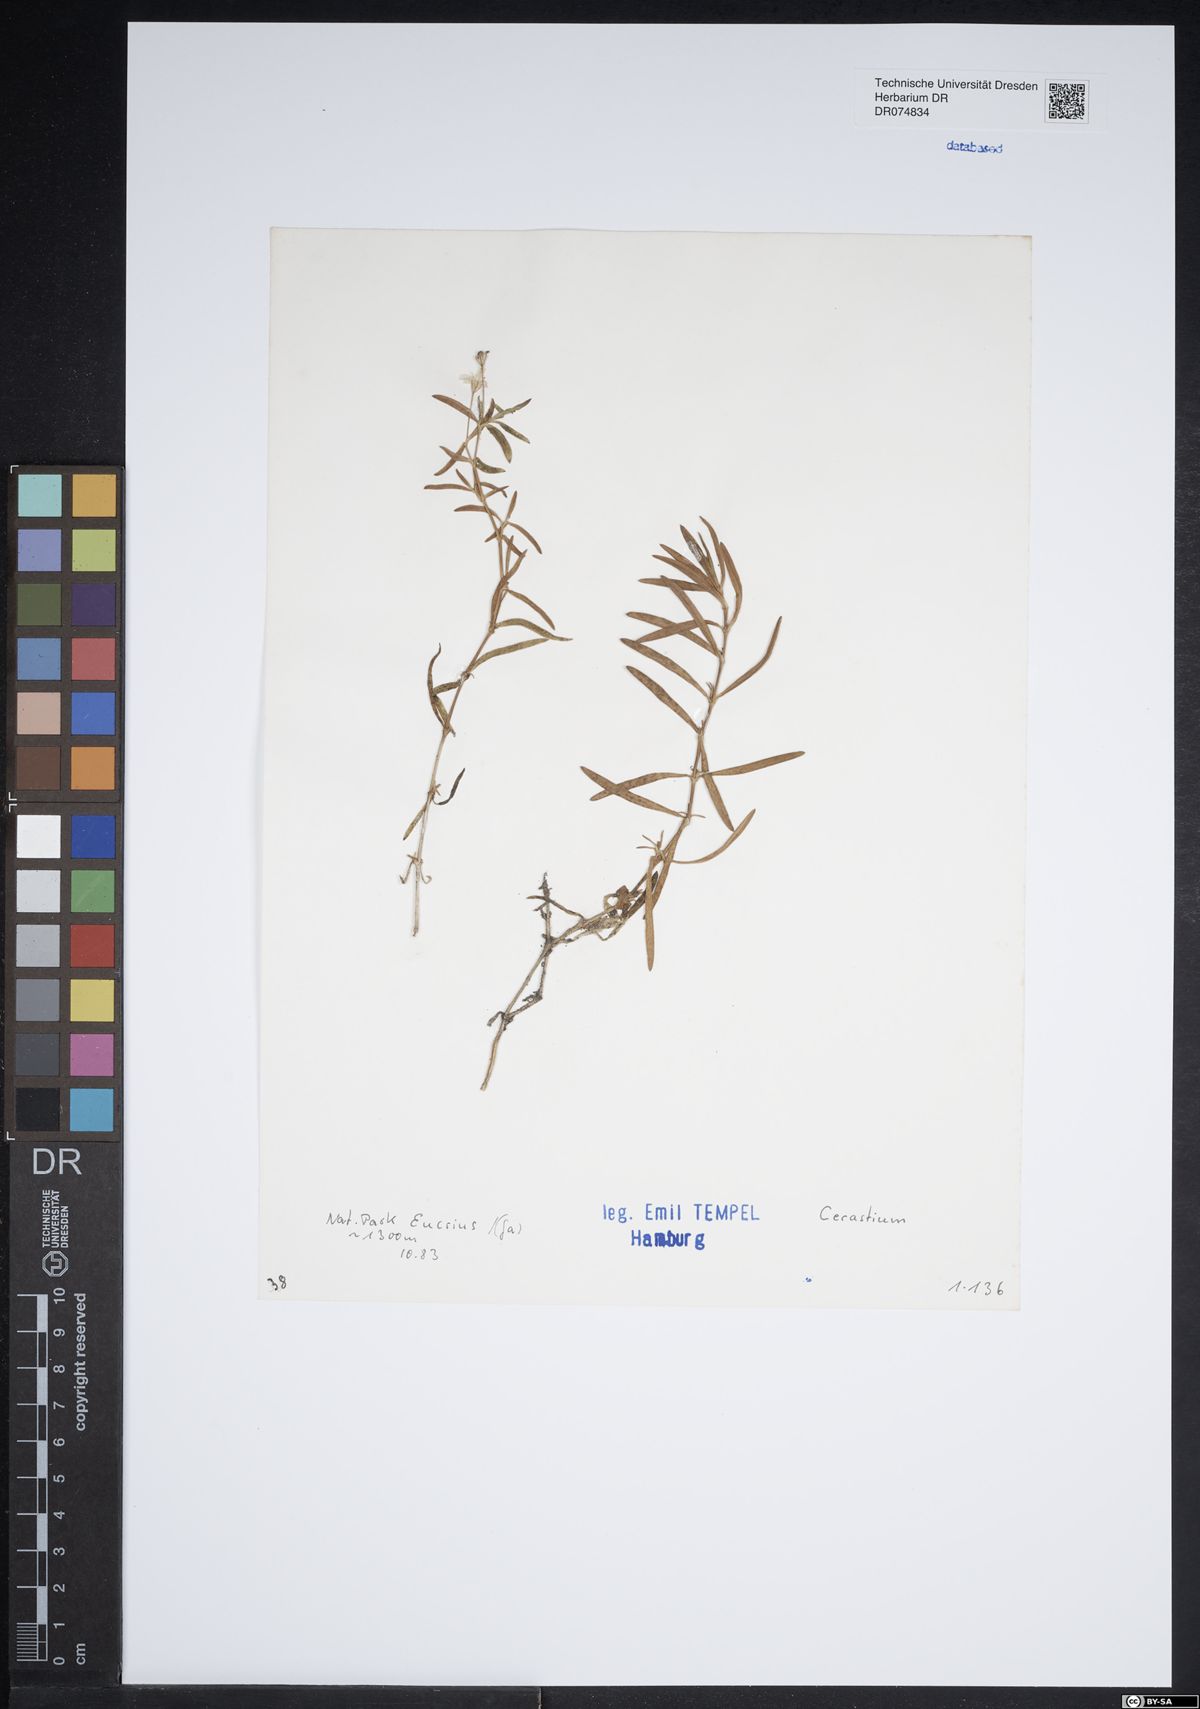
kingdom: Plantae
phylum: Tracheophyta
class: Magnoliopsida
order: Caryophyllales
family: Caryophyllaceae
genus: Cerastium
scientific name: Cerastium
